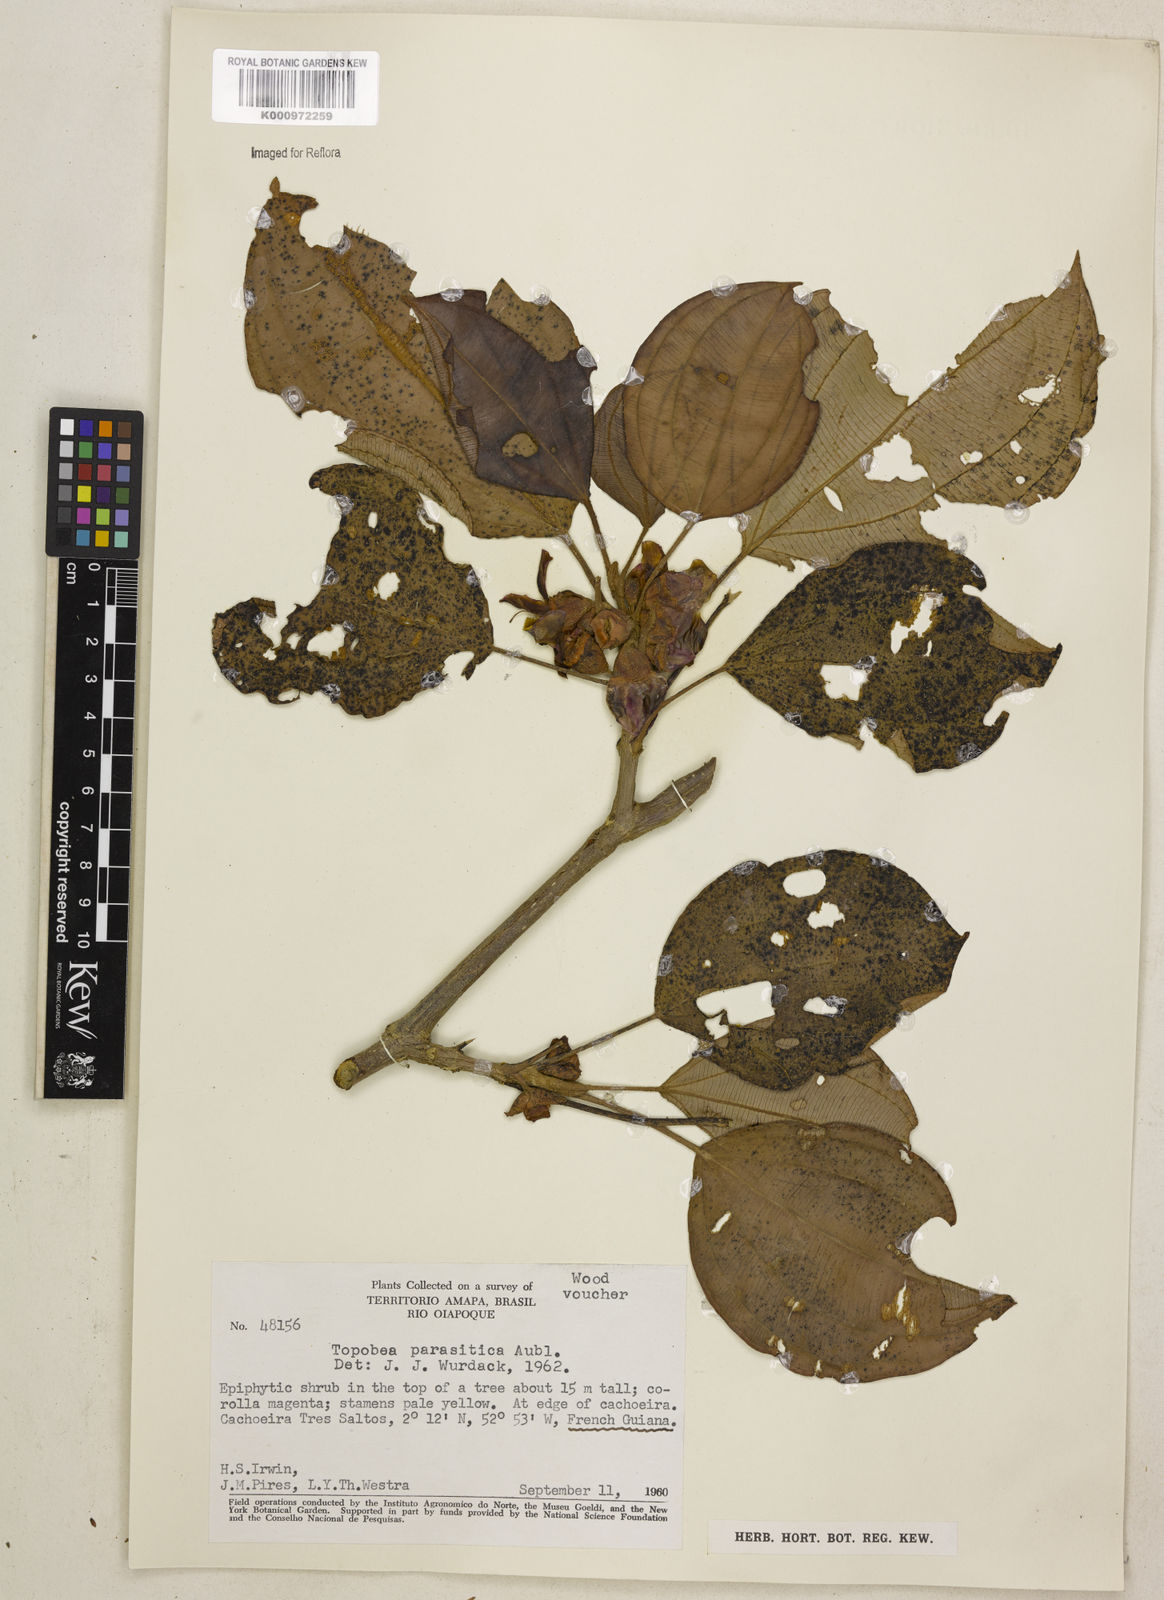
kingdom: Plantae
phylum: Tracheophyta
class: Magnoliopsida
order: Myrtales
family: Melastomataceae
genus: Blakea
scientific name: Blakea parasitica
